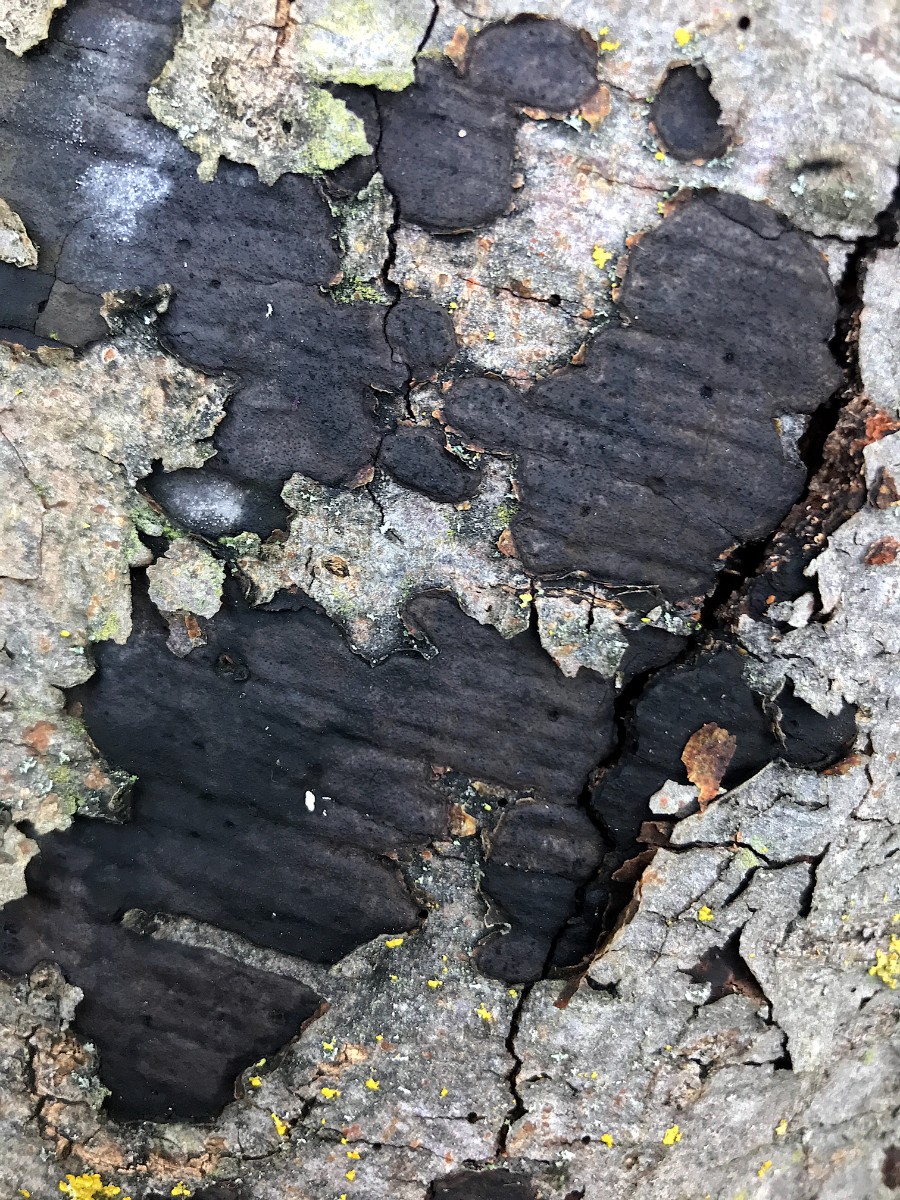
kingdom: Fungi
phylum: Ascomycota
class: Sordariomycetes
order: Xylariales
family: Diatrypaceae
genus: Eutypa
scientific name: Eutypa spinosa
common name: grov kulskorpe
